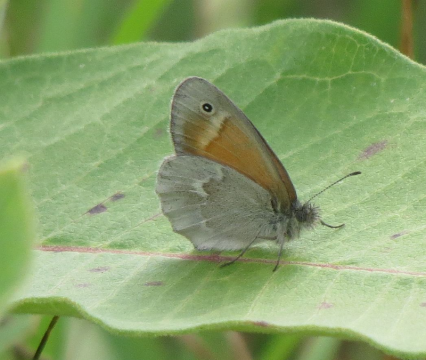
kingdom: Animalia
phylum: Arthropoda
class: Insecta
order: Lepidoptera
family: Nymphalidae
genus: Coenonympha
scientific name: Coenonympha tullia
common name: Large Heath
